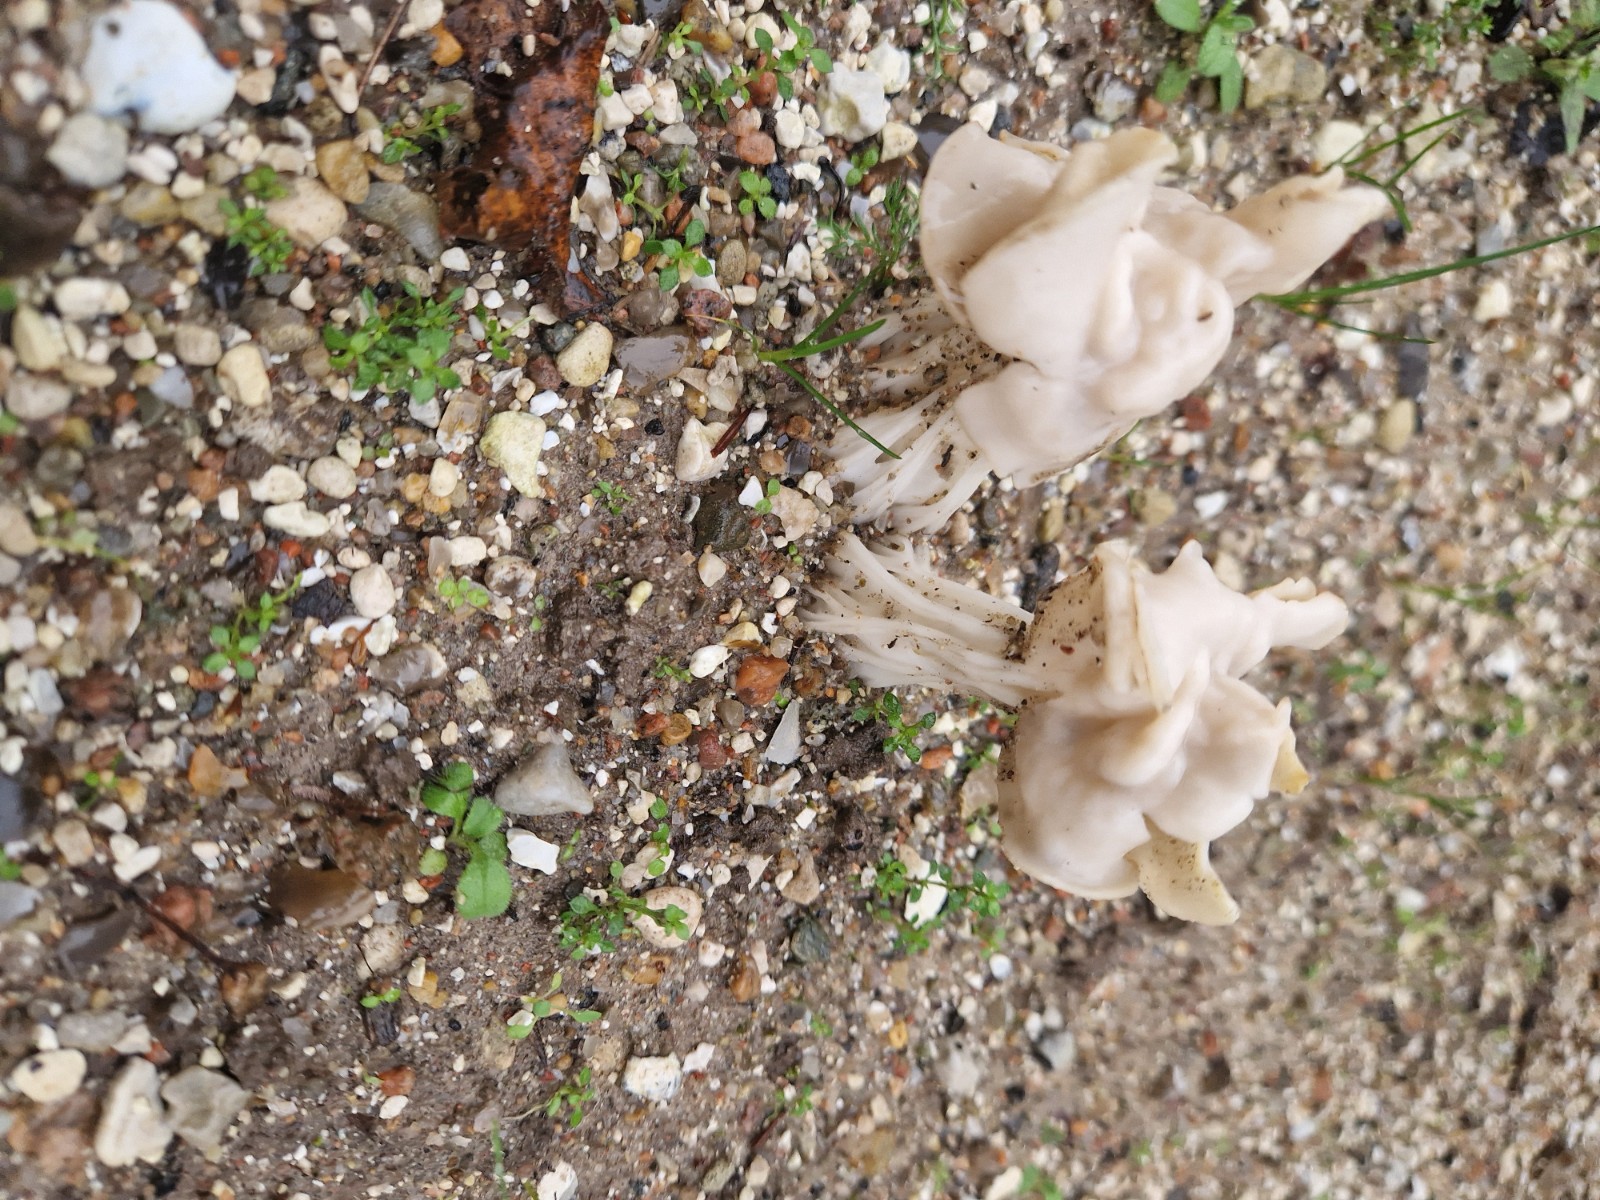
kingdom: Fungi
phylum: Ascomycota
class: Pezizomycetes
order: Pezizales
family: Helvellaceae
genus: Helvella
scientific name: Helvella crispa
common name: kruset foldhat
